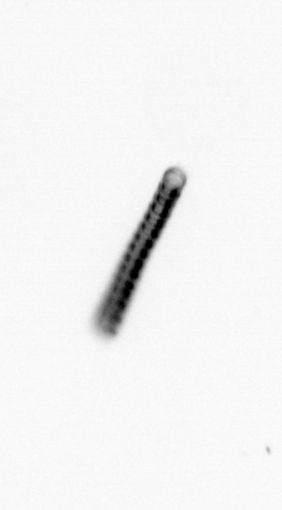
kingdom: Chromista
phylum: Ochrophyta
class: Bacillariophyceae
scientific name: Bacillariophyceae
